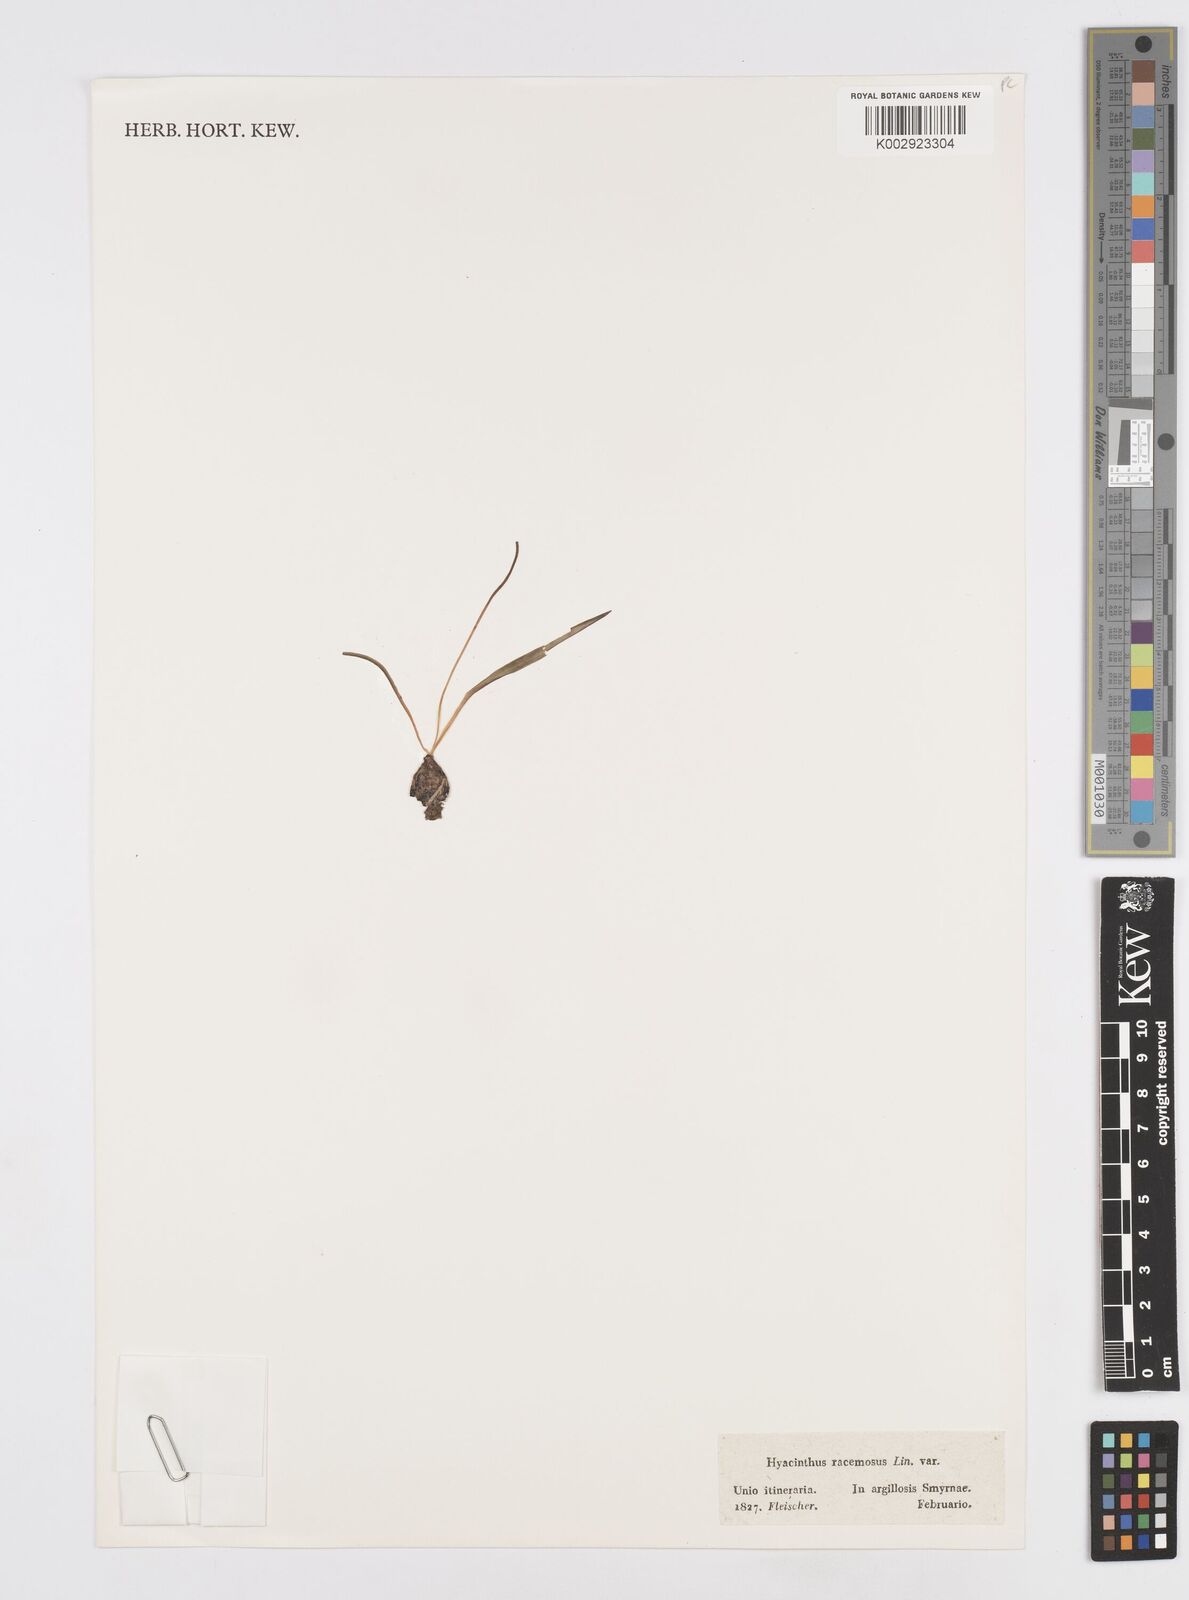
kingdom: Plantae
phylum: Tracheophyta
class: Liliopsida
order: Asparagales
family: Asparagaceae
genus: Muscari
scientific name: Muscari neglectum
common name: Grape-hyacinth
